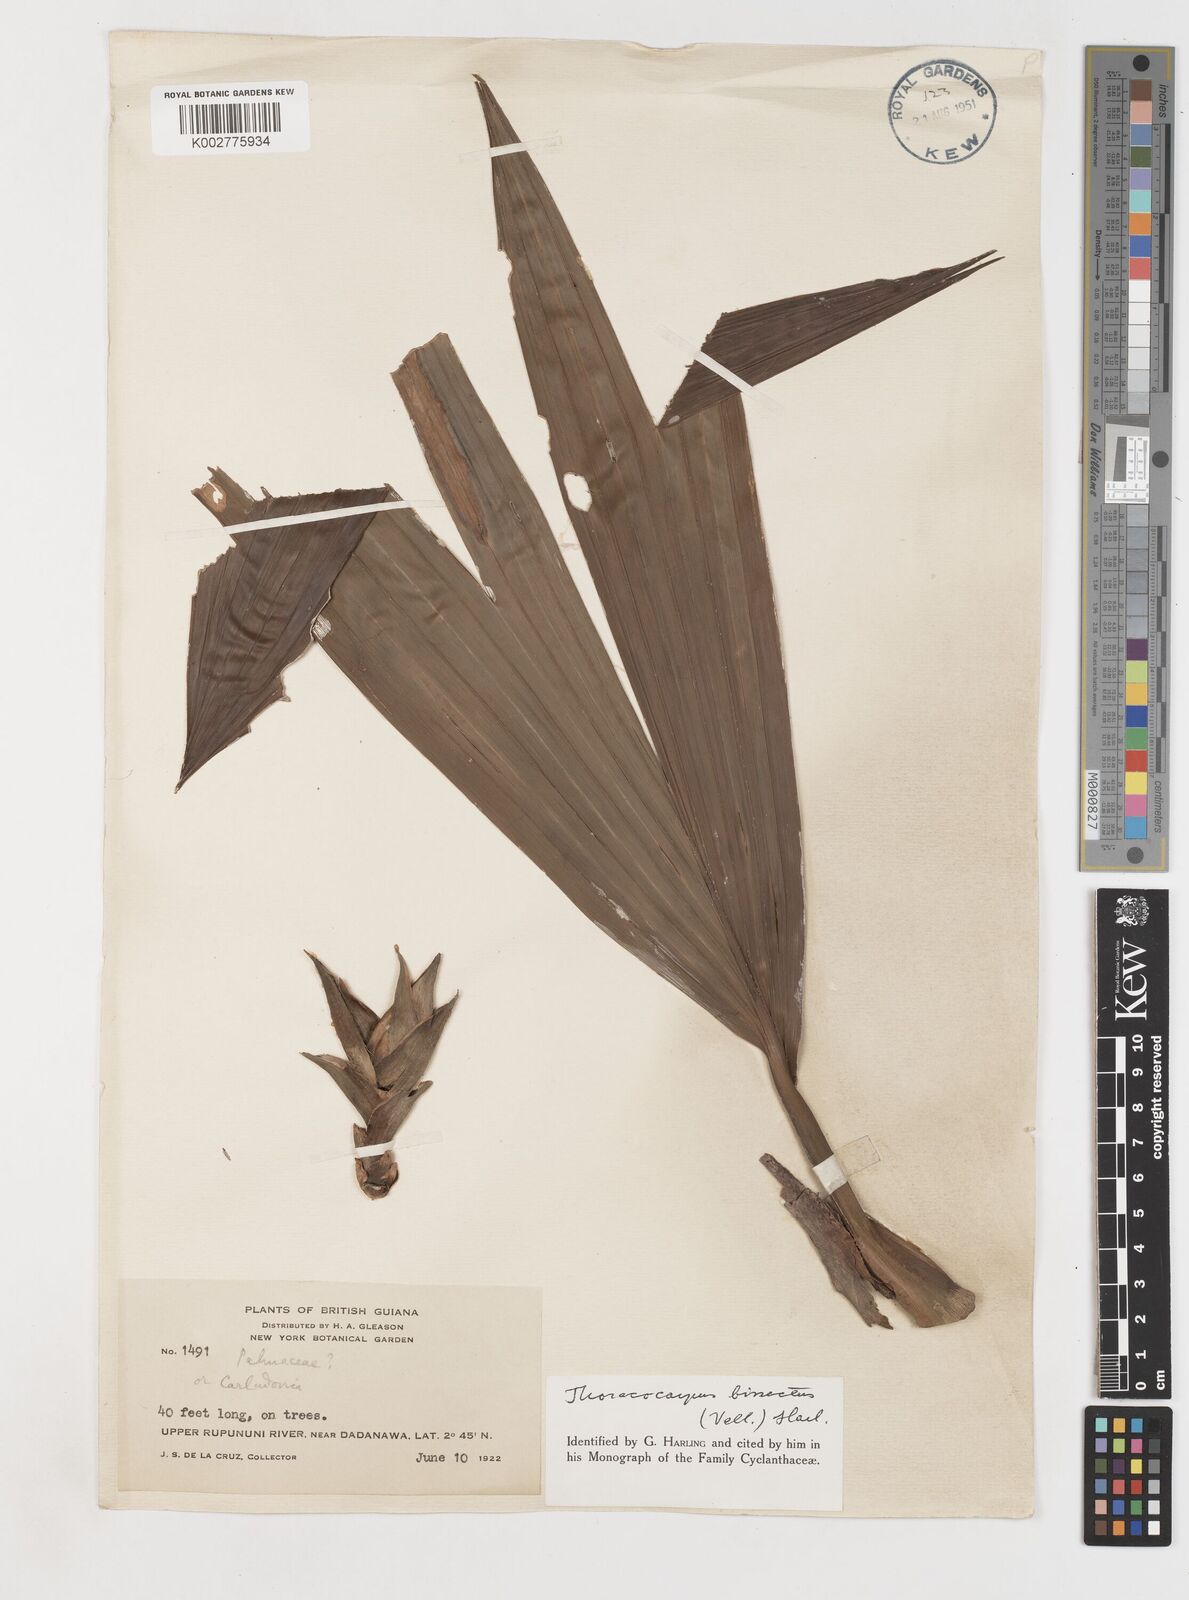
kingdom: Plantae
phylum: Tracheophyta
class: Liliopsida
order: Pandanales
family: Cyclanthaceae
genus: Thoracocarpus
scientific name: Thoracocarpus bissectus
